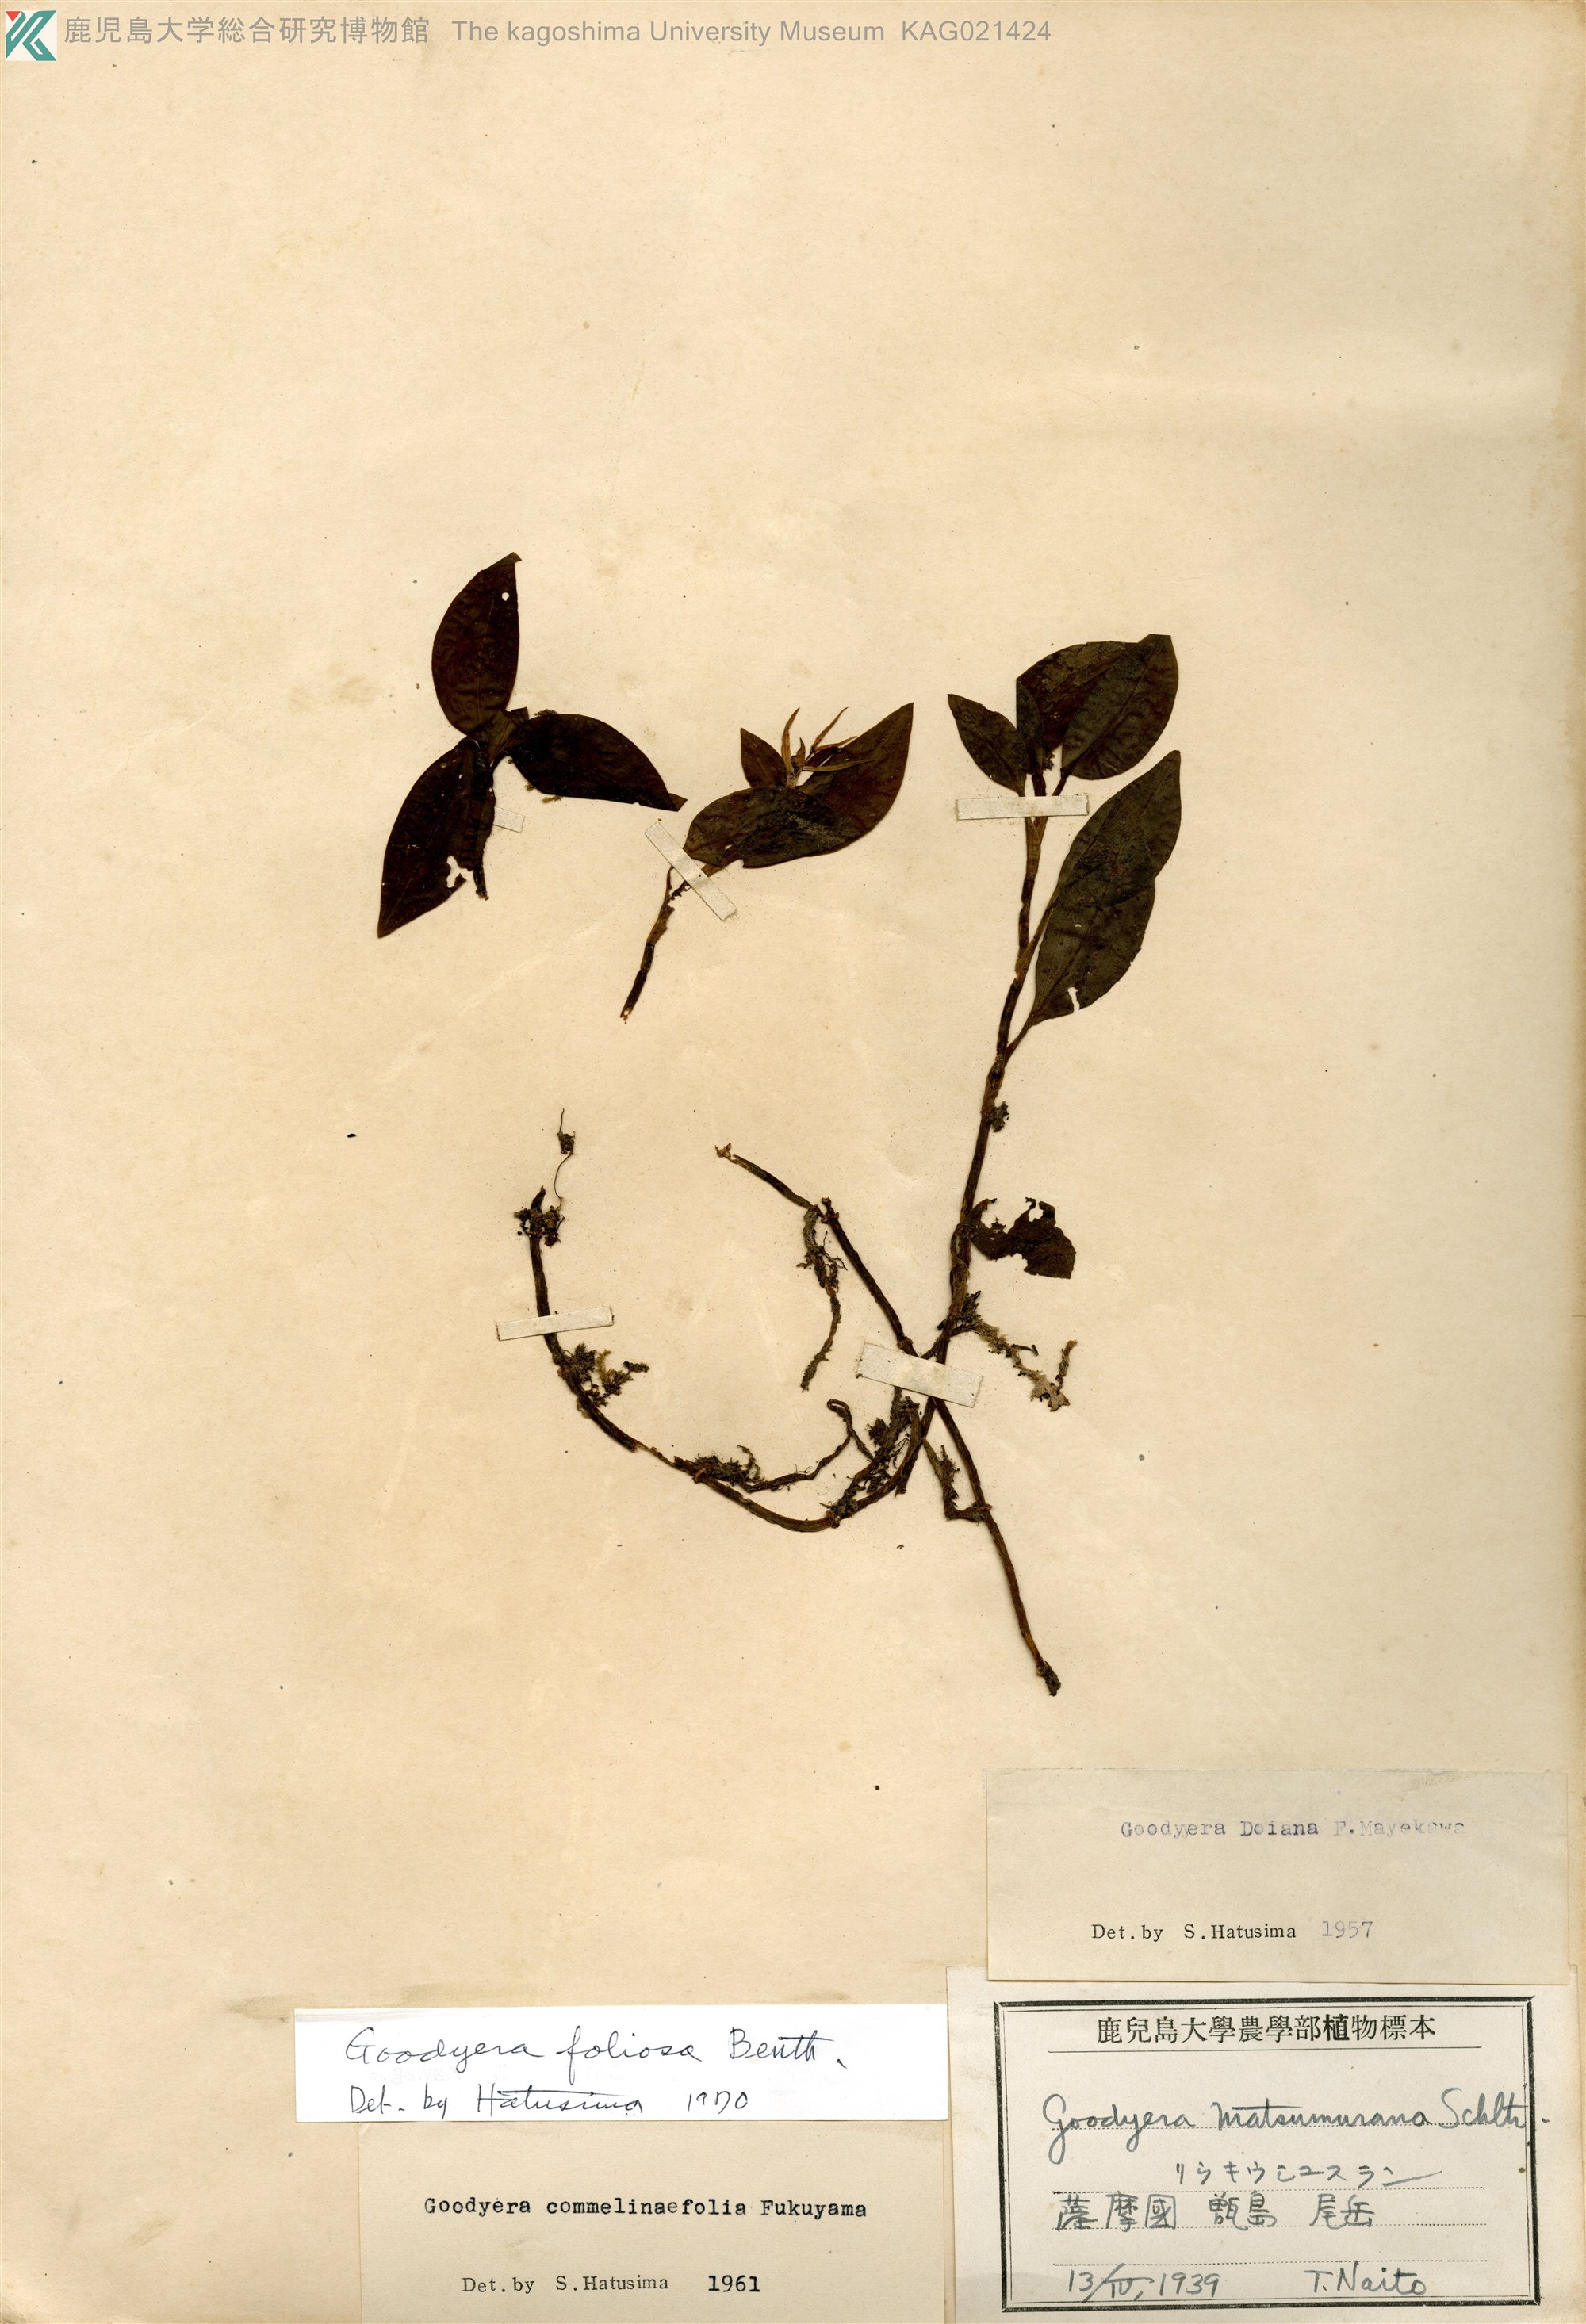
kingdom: Plantae
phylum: Tracheophyta
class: Liliopsida
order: Asparagales
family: Orchidaceae
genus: Goodyera
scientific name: Goodyera foliosa
